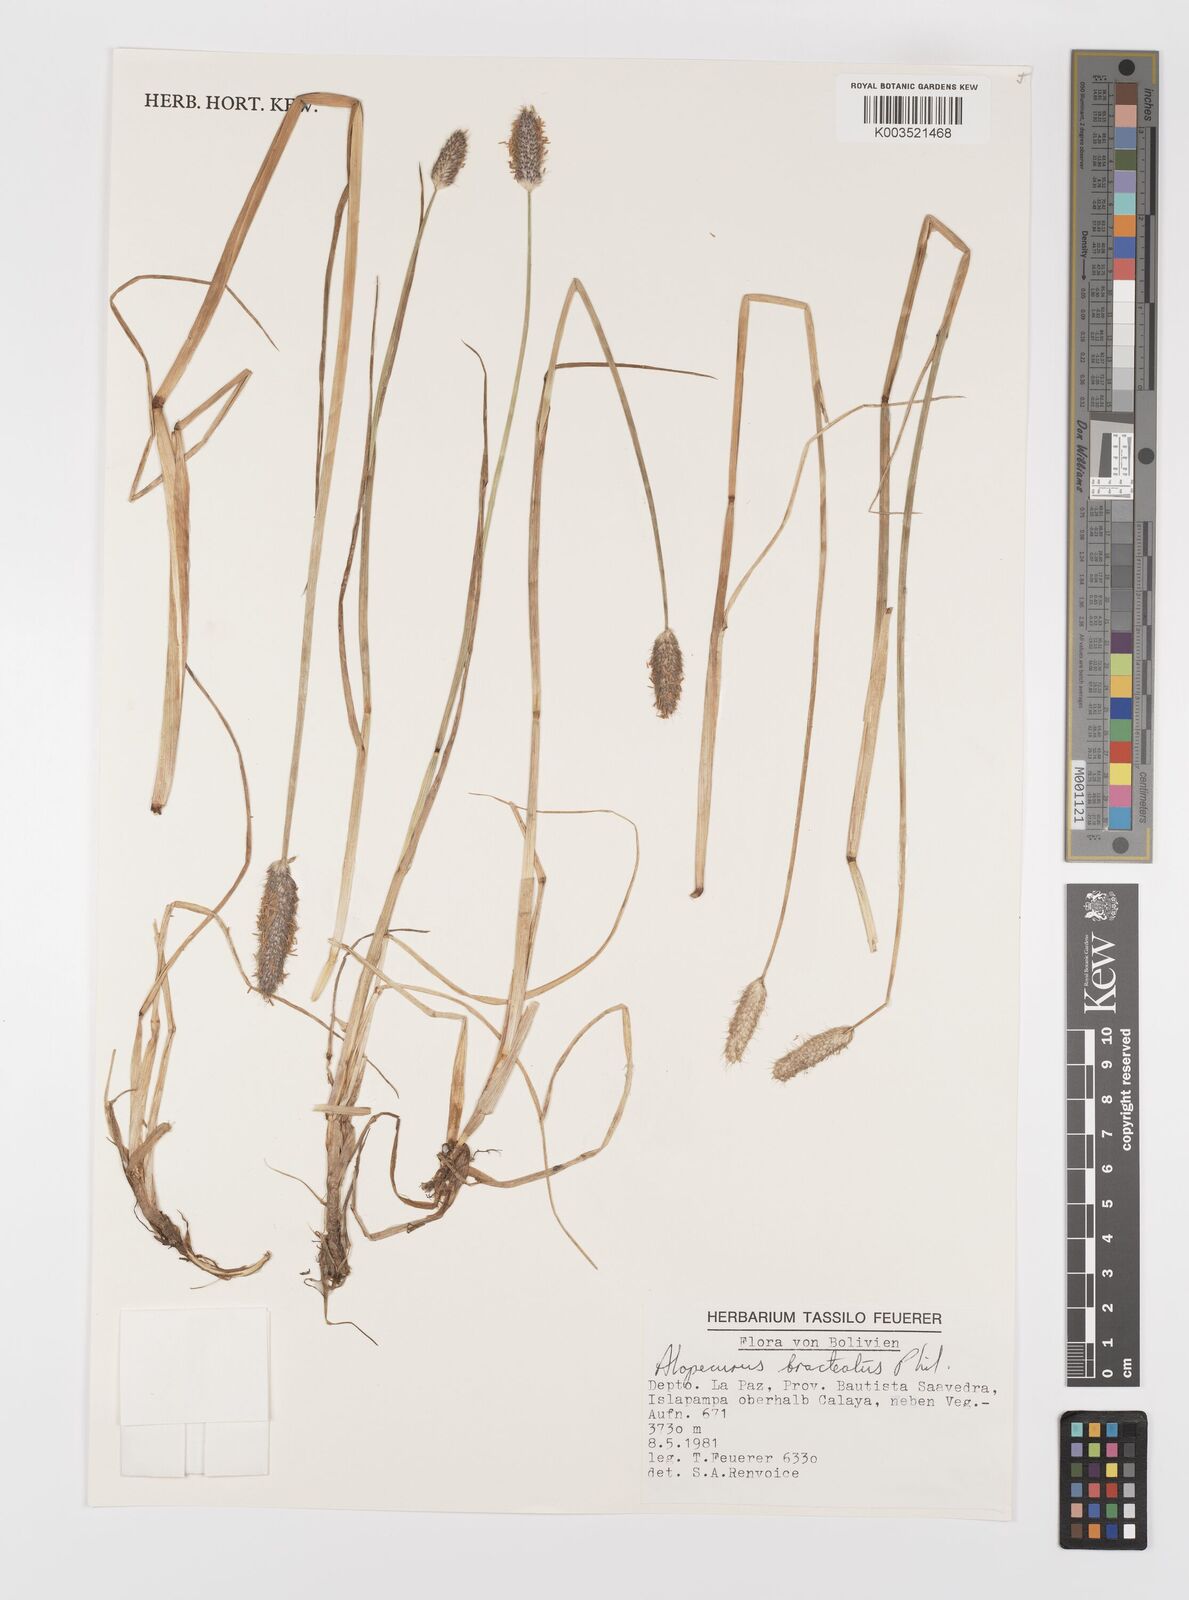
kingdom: Plantae
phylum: Tracheophyta
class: Liliopsida
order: Poales
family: Poaceae
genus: Alopecurus
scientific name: Alopecurus magellanicus
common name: Alpine foxtail
